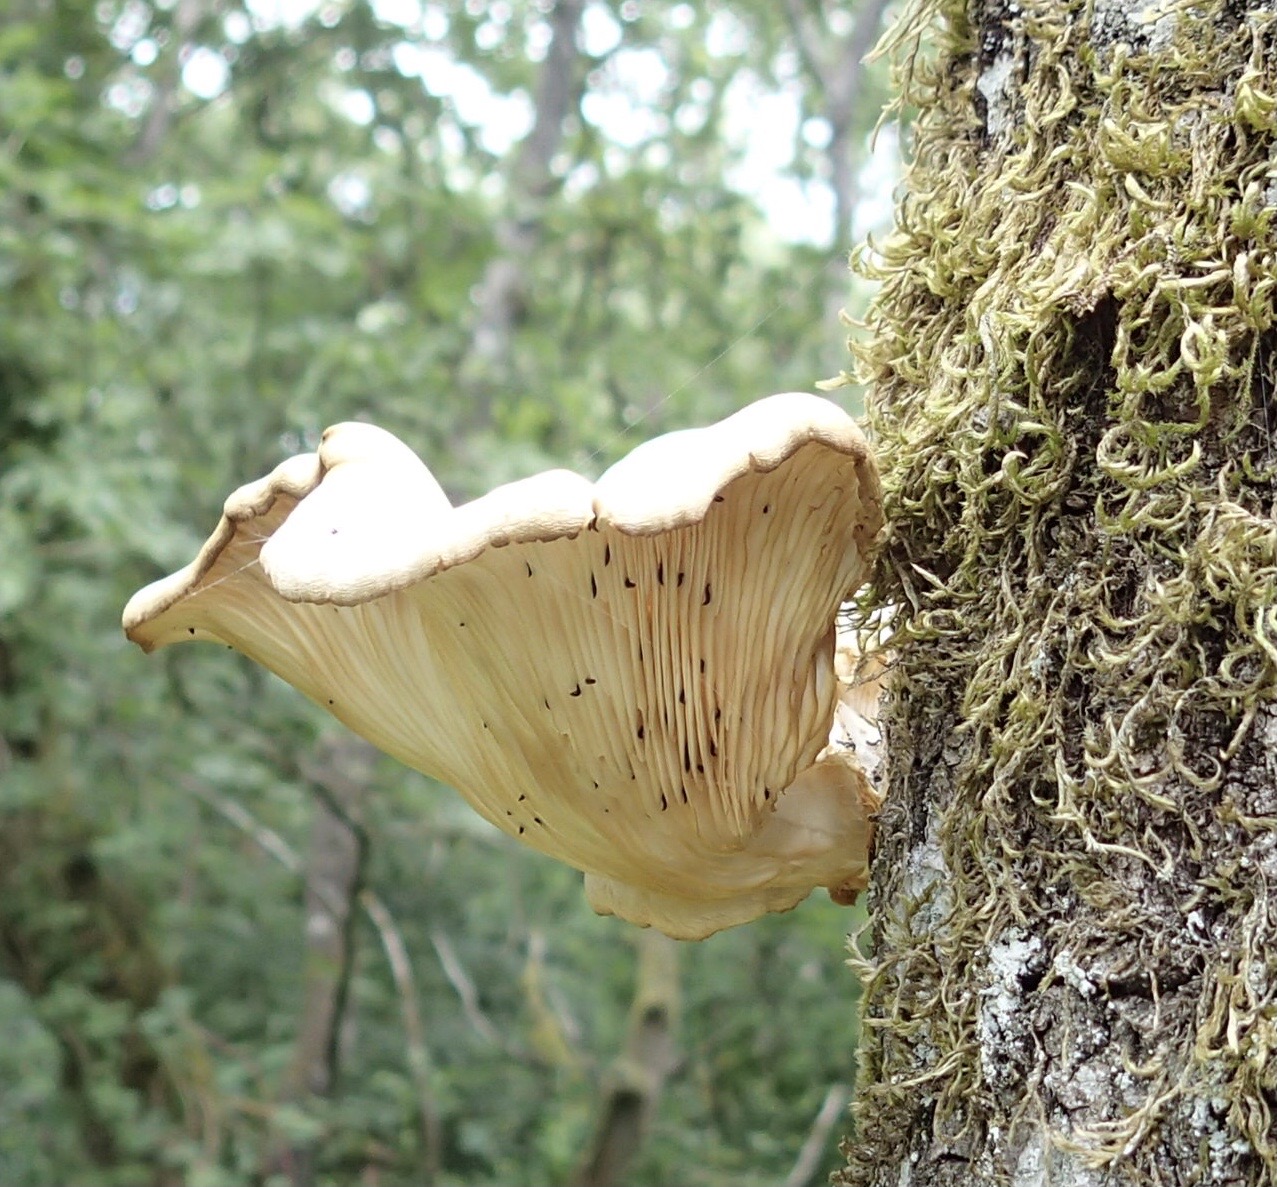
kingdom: Fungi
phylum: Basidiomycota
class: Agaricomycetes
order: Agaricales
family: Pleurotaceae
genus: Pleurotus
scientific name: Pleurotus pulmonarius
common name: sommer-østershat
